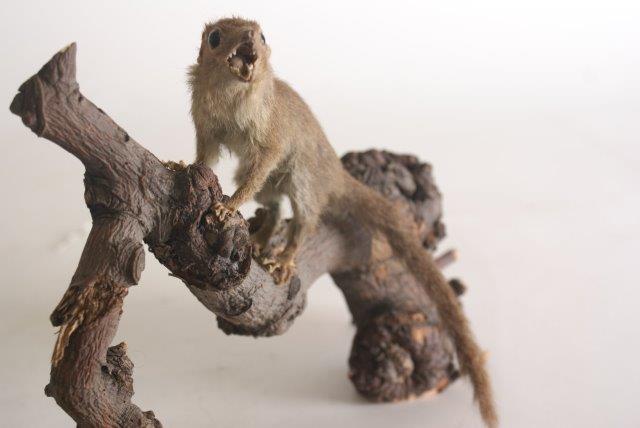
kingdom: Animalia
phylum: Chordata
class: Mammalia
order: Scandentia
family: Tupaiidae
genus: Tupaia
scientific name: Tupaia glis
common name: Common Treeshrew
